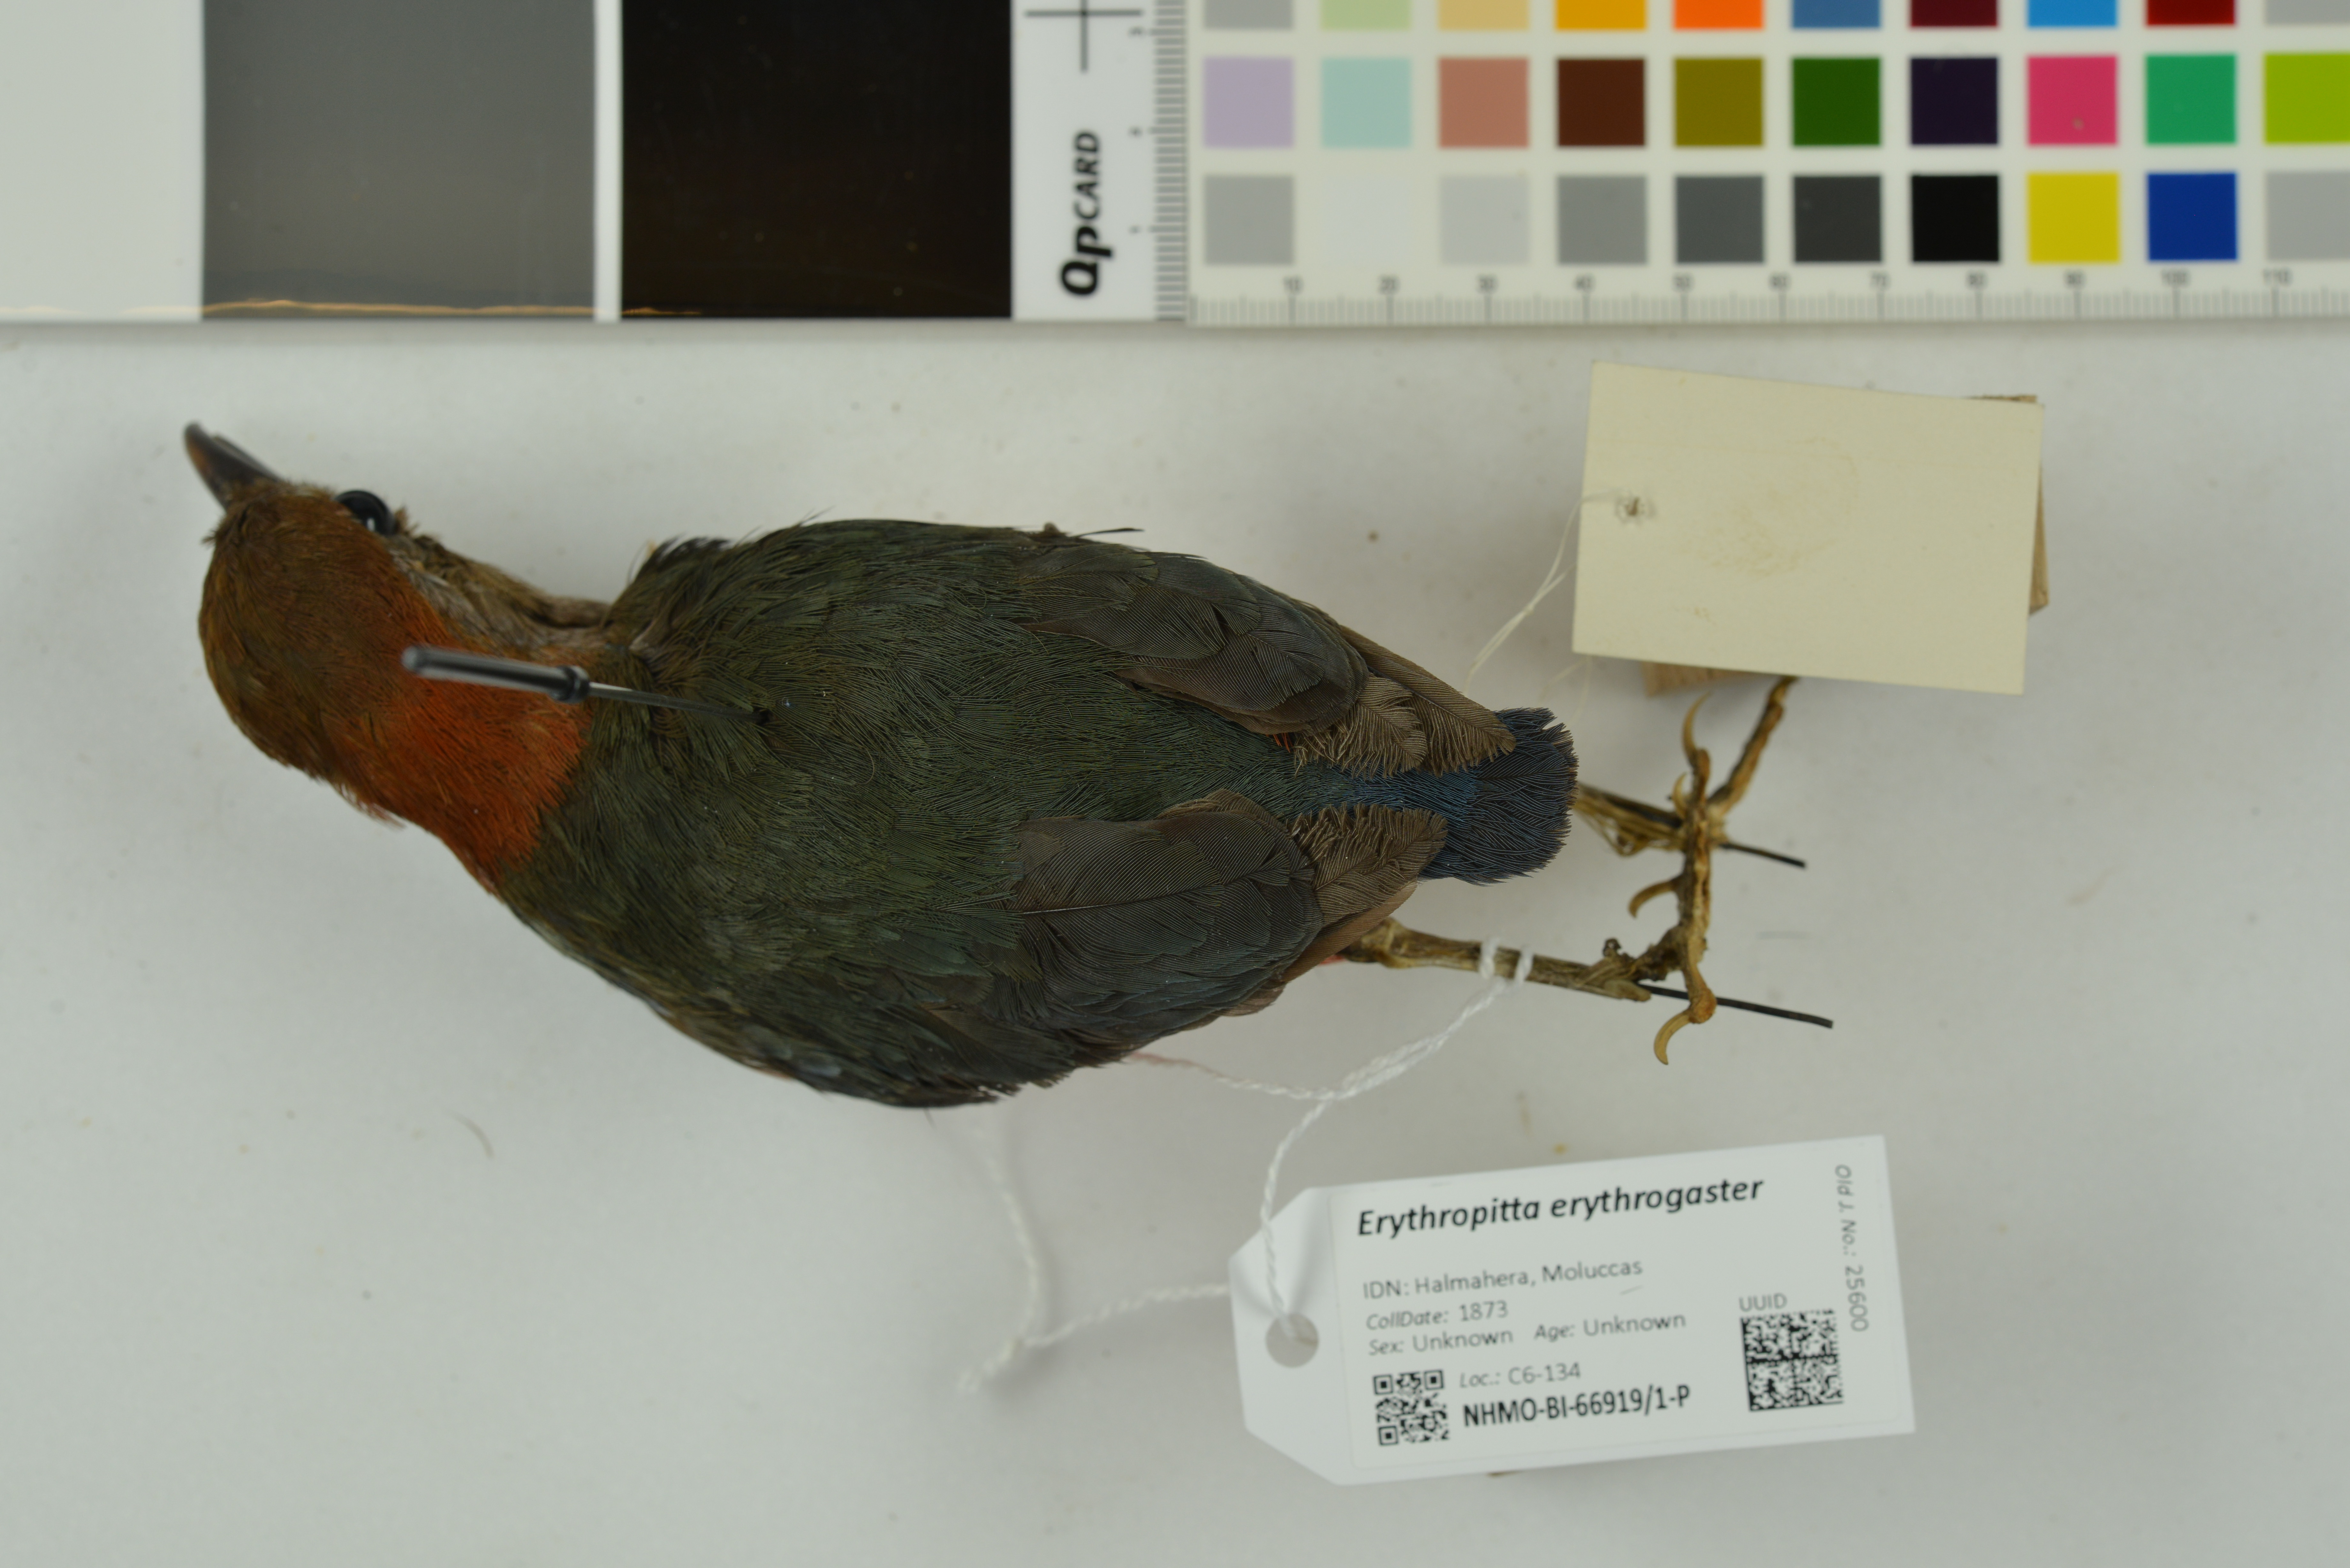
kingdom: Animalia
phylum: Chordata
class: Aves
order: Passeriformes
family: Pittidae
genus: Pitta
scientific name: Pitta erythrogaster
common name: Red-bellied pitta
